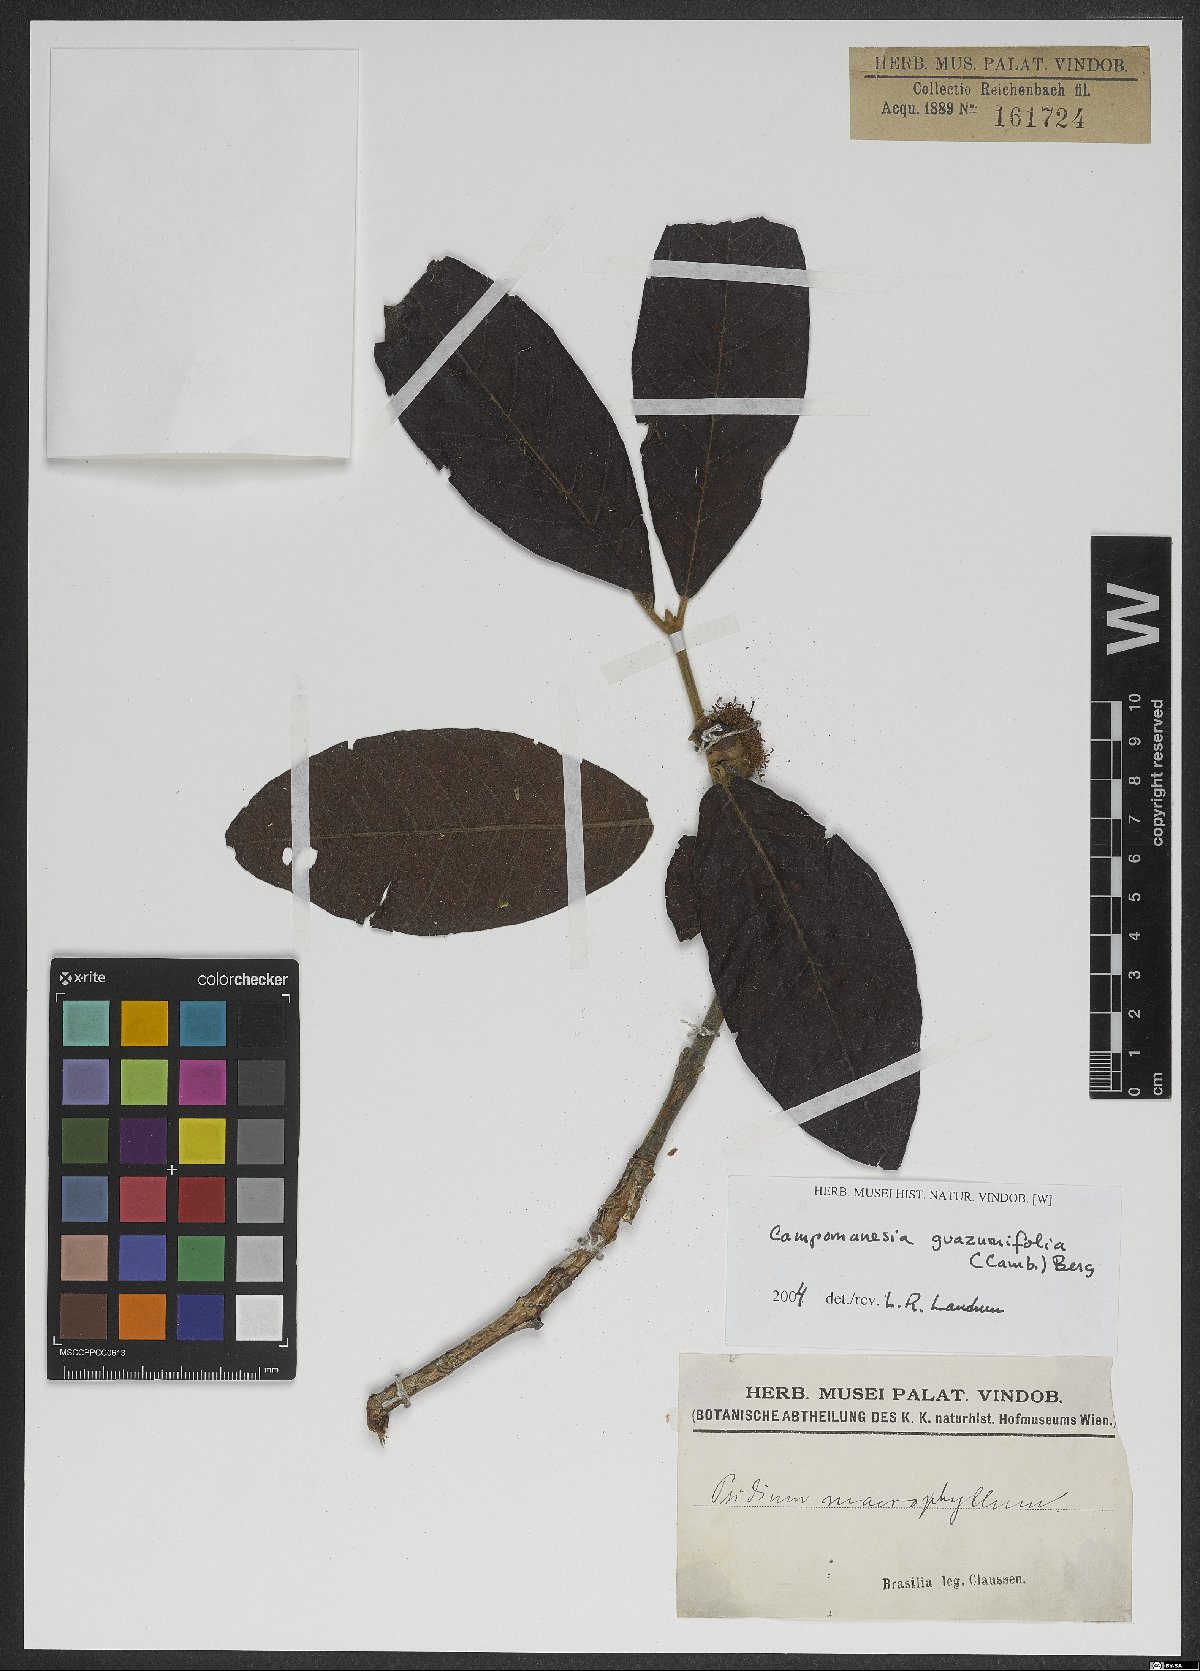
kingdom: Plantae
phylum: Tracheophyta
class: Magnoliopsida
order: Myrtales
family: Myrtaceae
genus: Campomanesia
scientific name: Campomanesia guazumifolia
